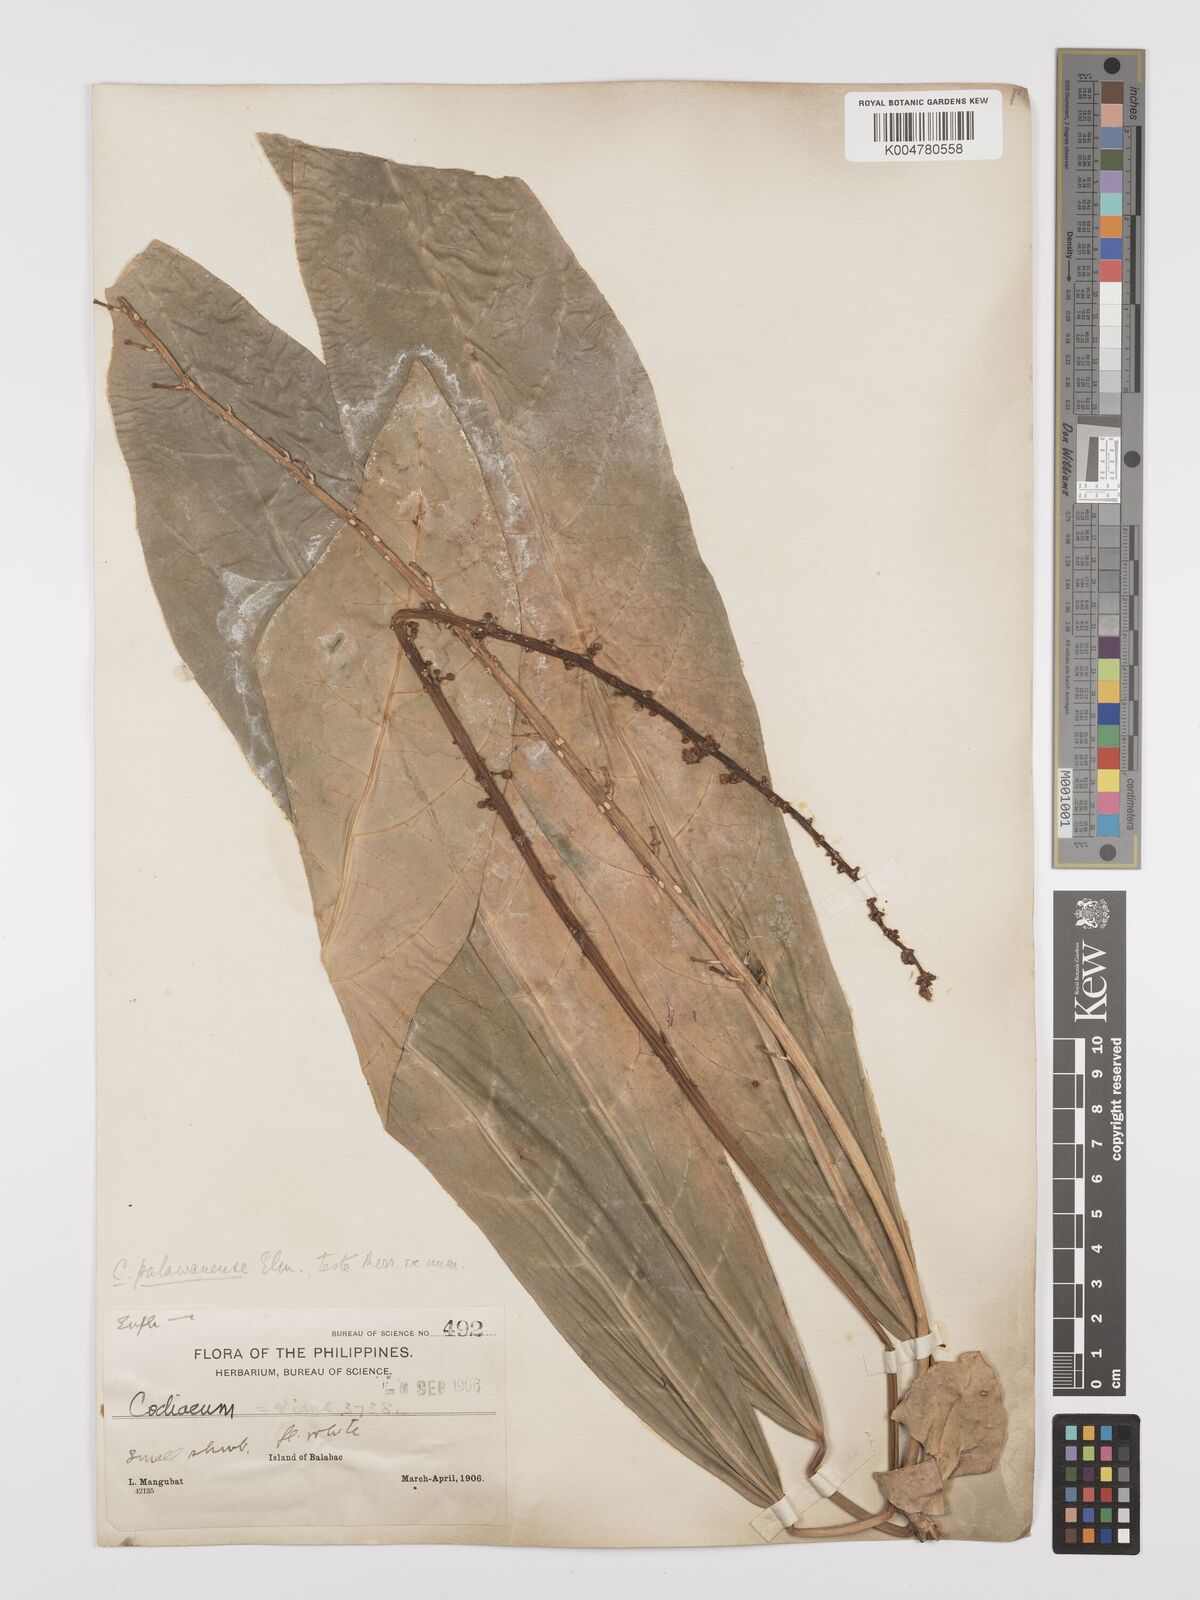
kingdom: Plantae
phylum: Tracheophyta
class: Magnoliopsida
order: Malpighiales
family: Euphorbiaceae
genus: Codiaeum
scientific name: Codiaeum palawanense
